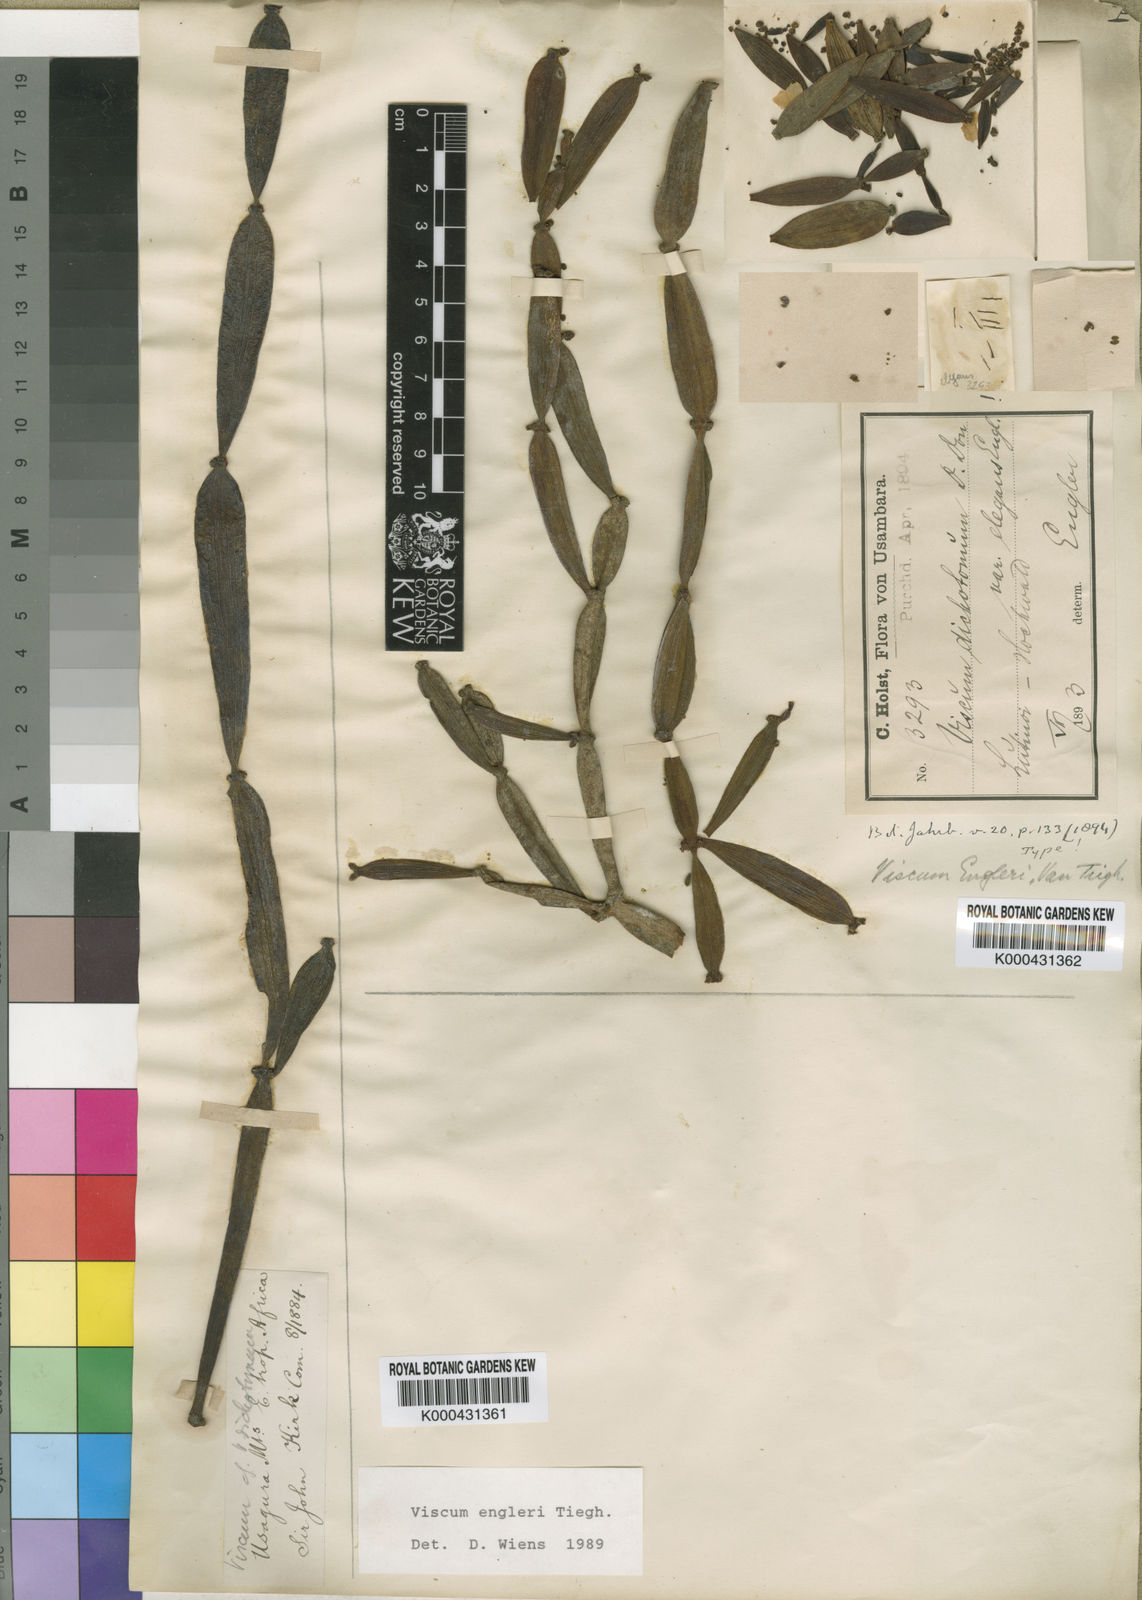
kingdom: Plantae
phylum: Tracheophyta
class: Magnoliopsida
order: Santalales
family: Viscaceae
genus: Viscum
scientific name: Viscum engleri
